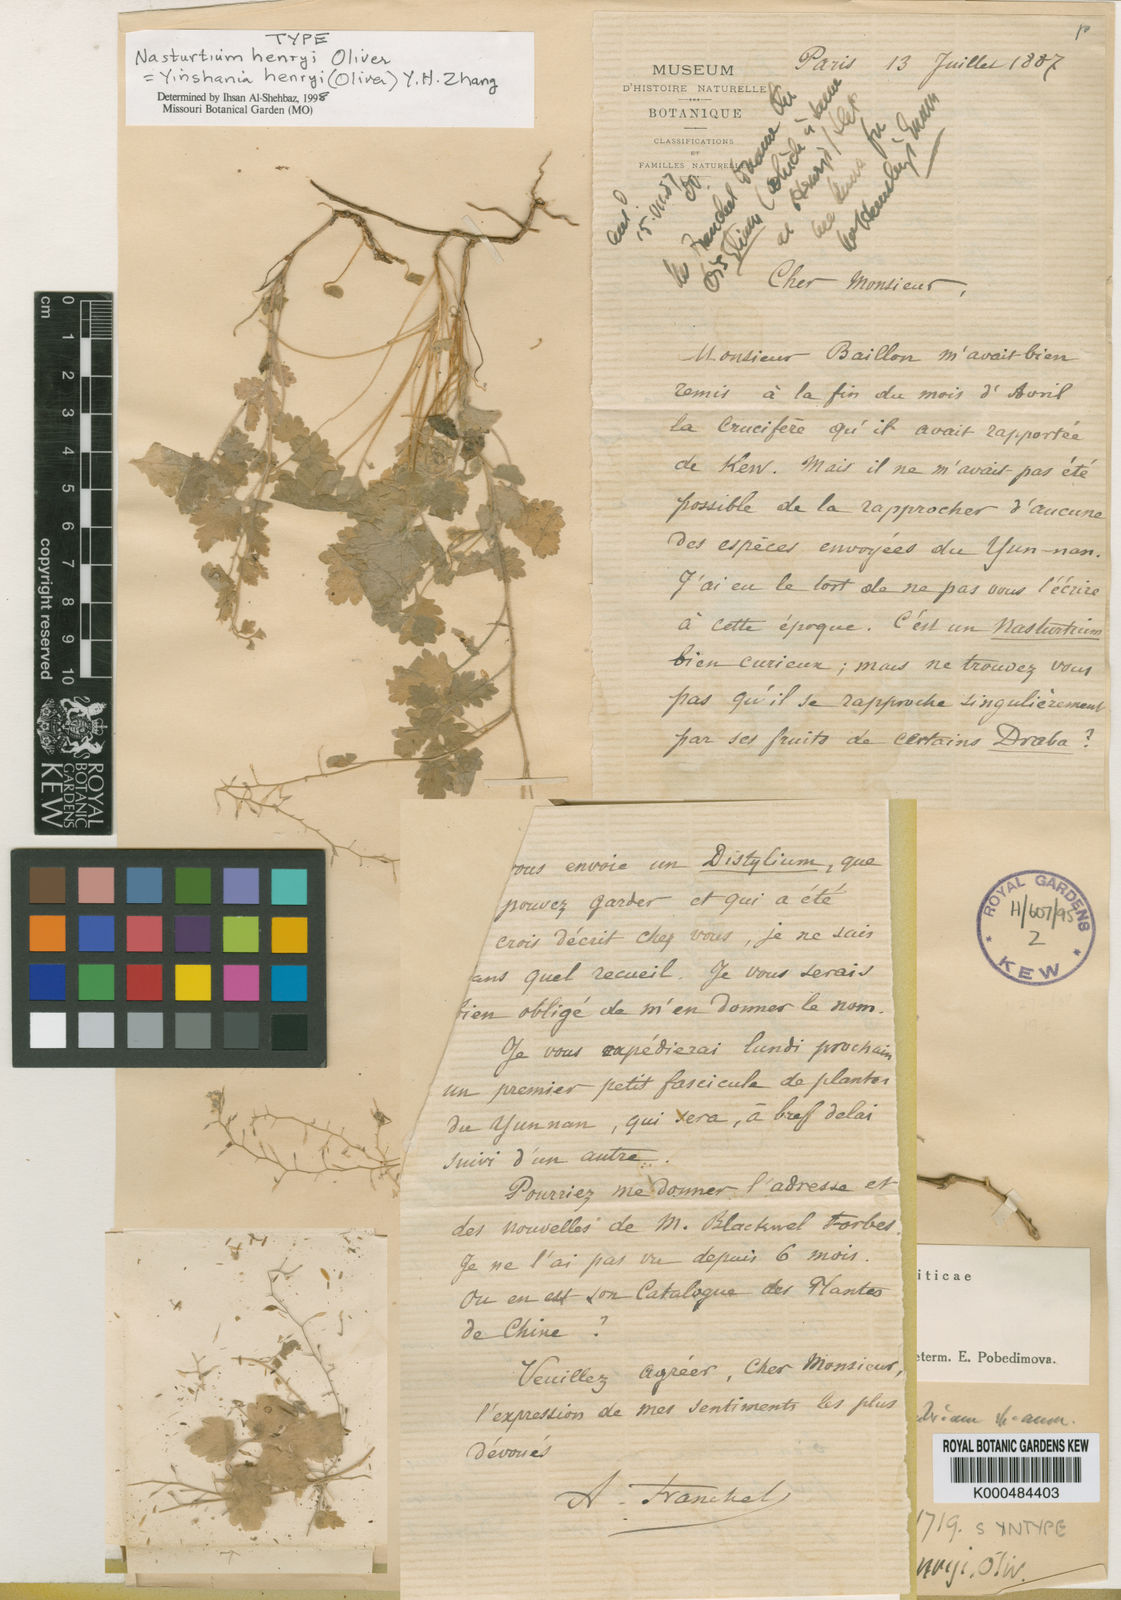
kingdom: Plantae
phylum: Tracheophyta
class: Magnoliopsida
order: Brassicales
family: Brassicaceae
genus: Yinshania
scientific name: Yinshania henryi
